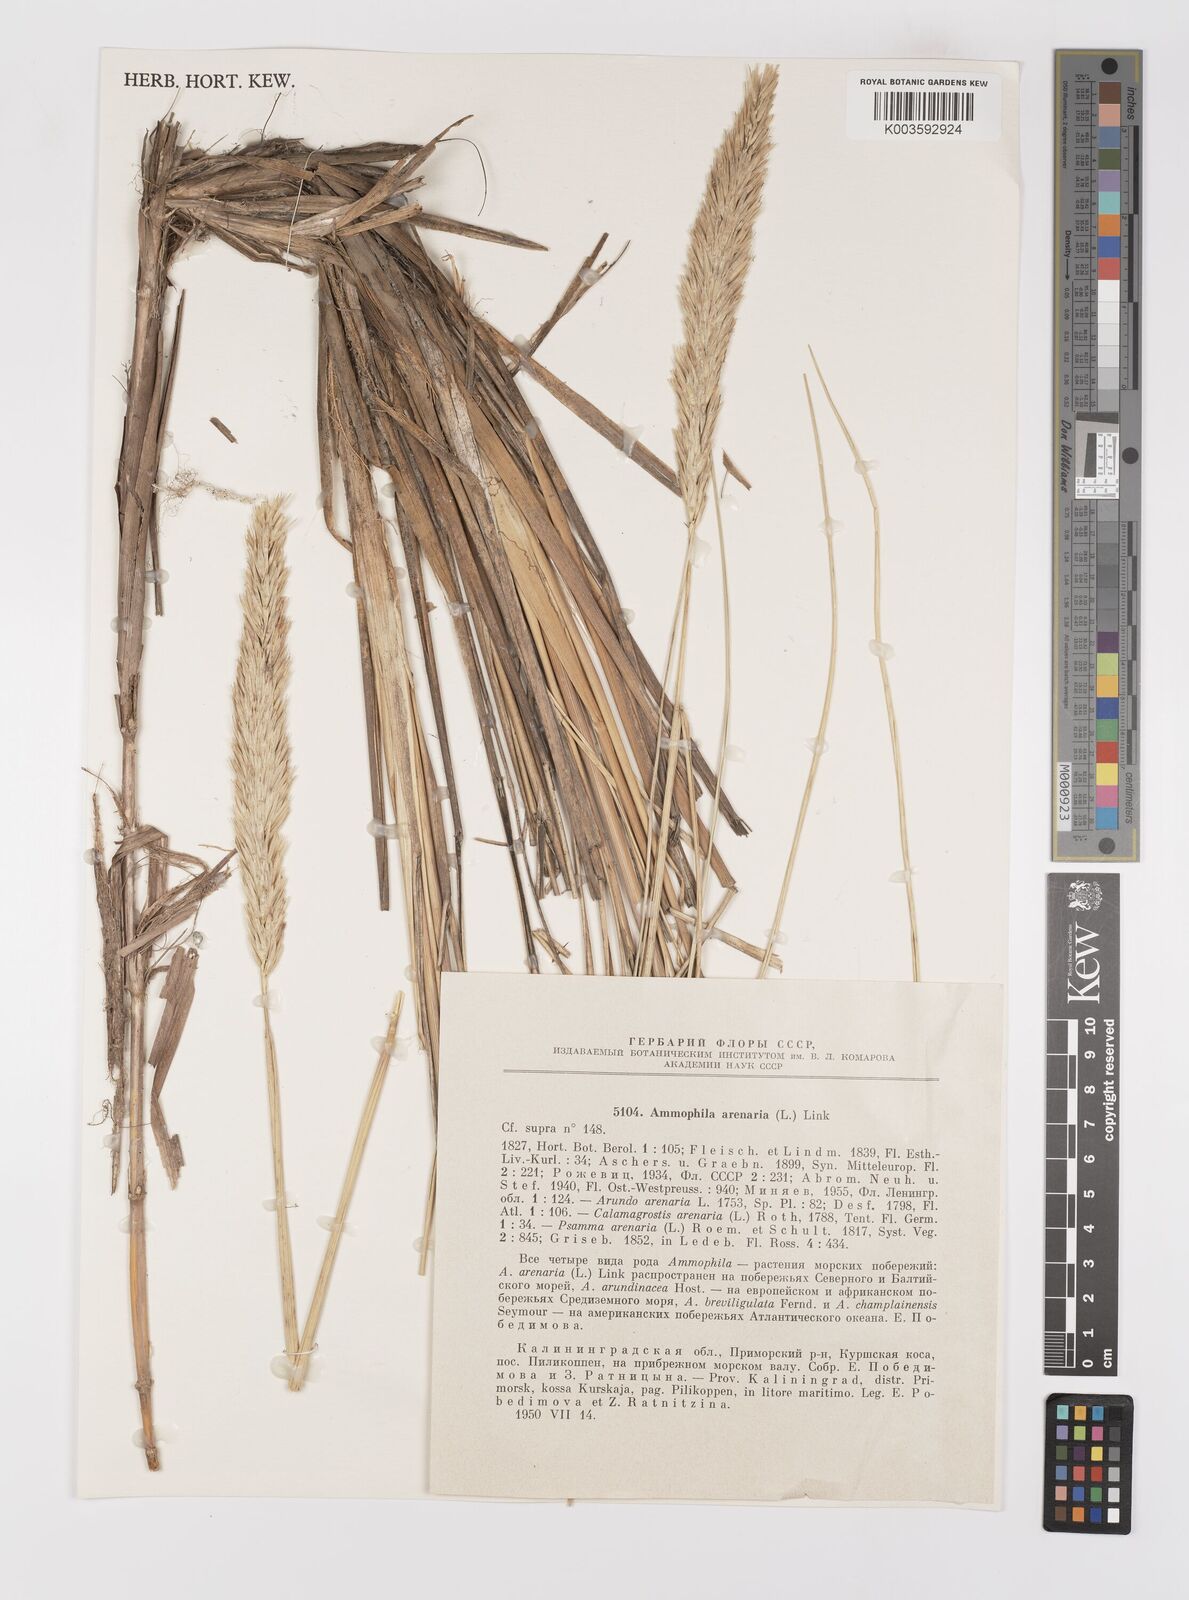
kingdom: Plantae
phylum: Tracheophyta
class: Liliopsida
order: Poales
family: Poaceae
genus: Calamagrostis
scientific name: Calamagrostis arenaria
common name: European beachgrass
